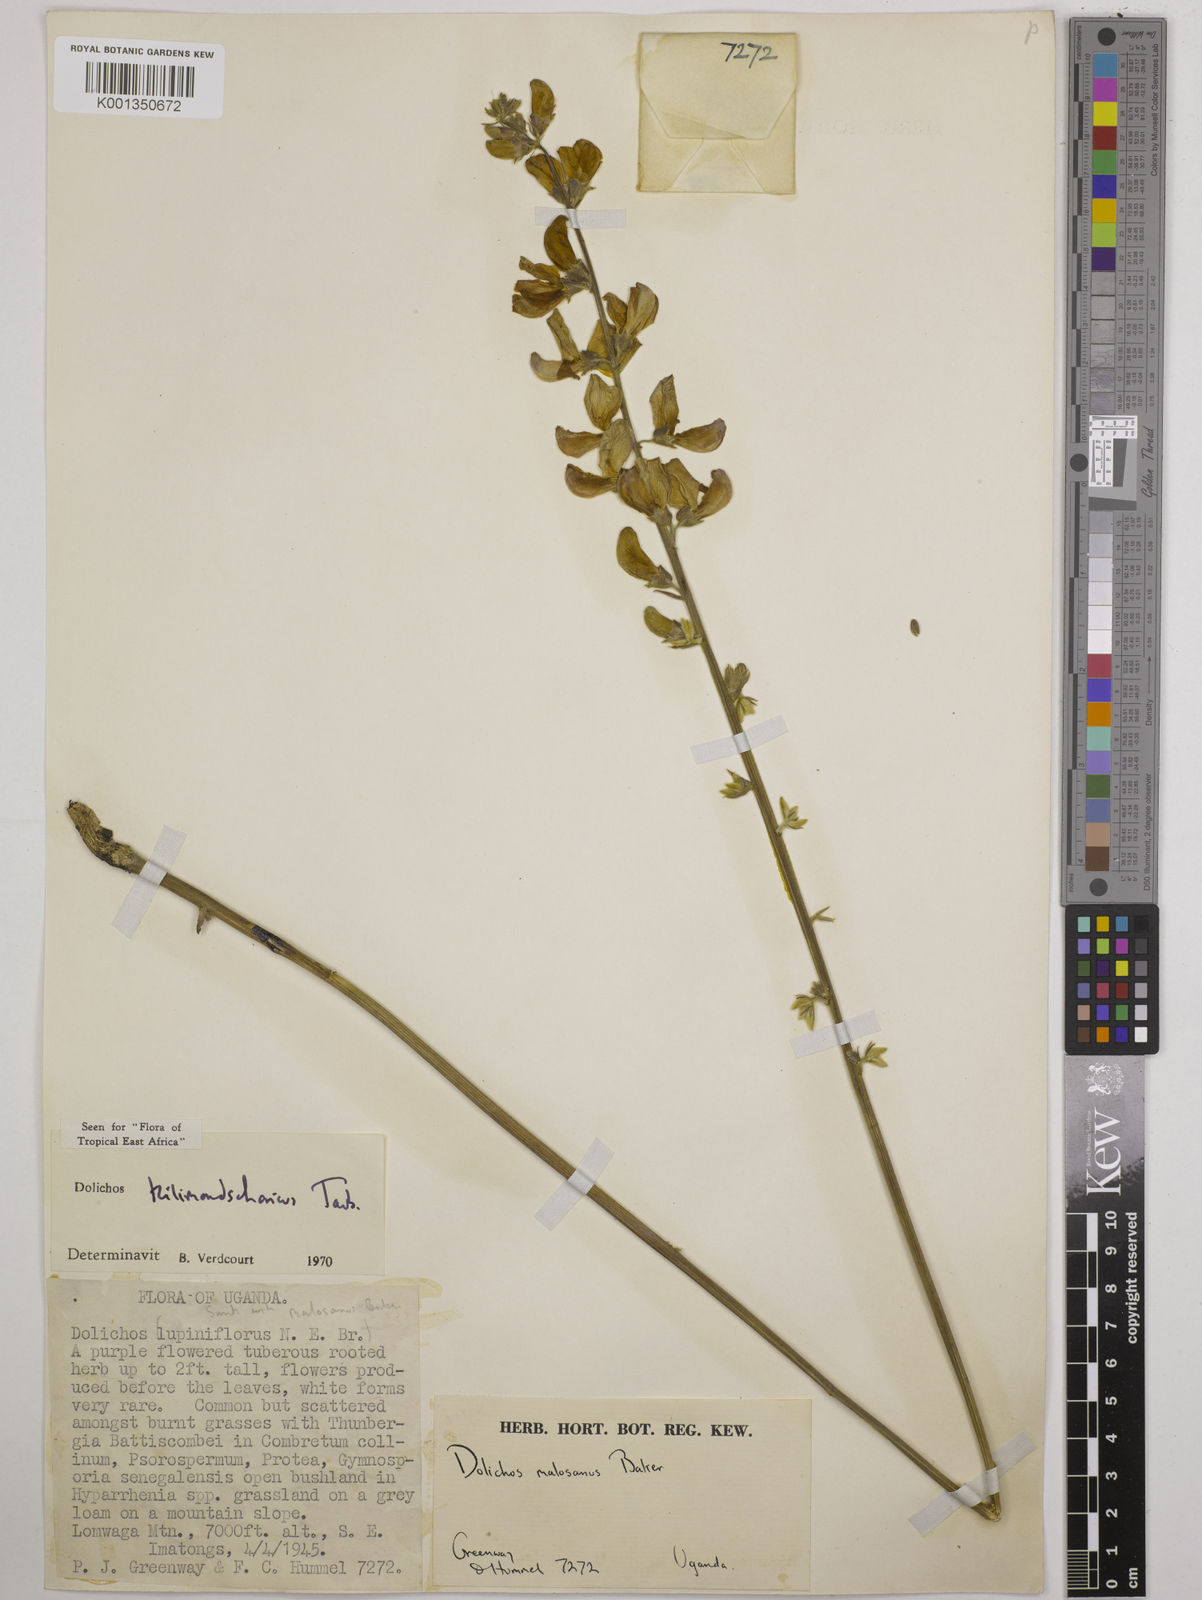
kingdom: Plantae
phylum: Tracheophyta
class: Magnoliopsida
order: Fabales
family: Fabaceae
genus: Dolichos
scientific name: Dolichos kilimandscharicus
